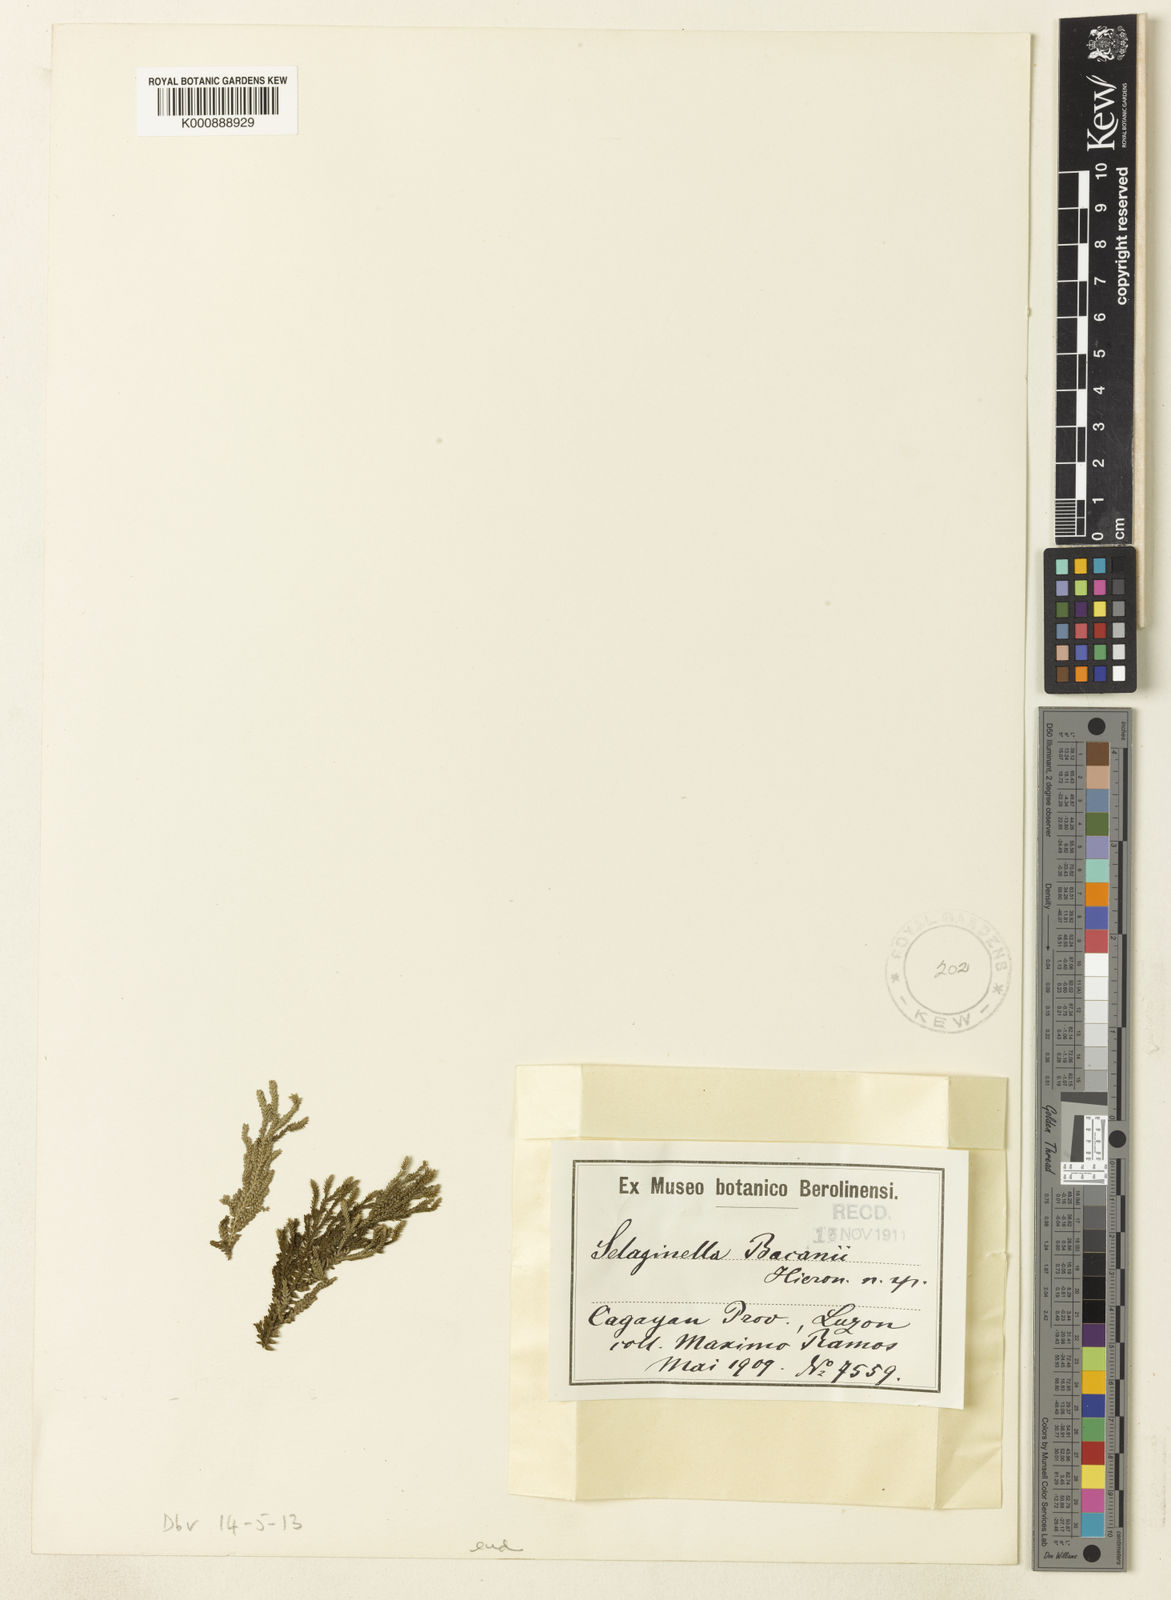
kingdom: Plantae
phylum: Tracheophyta
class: Lycopodiopsida
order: Selaginellales
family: Selaginellaceae
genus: Selaginella
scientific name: Selaginella
